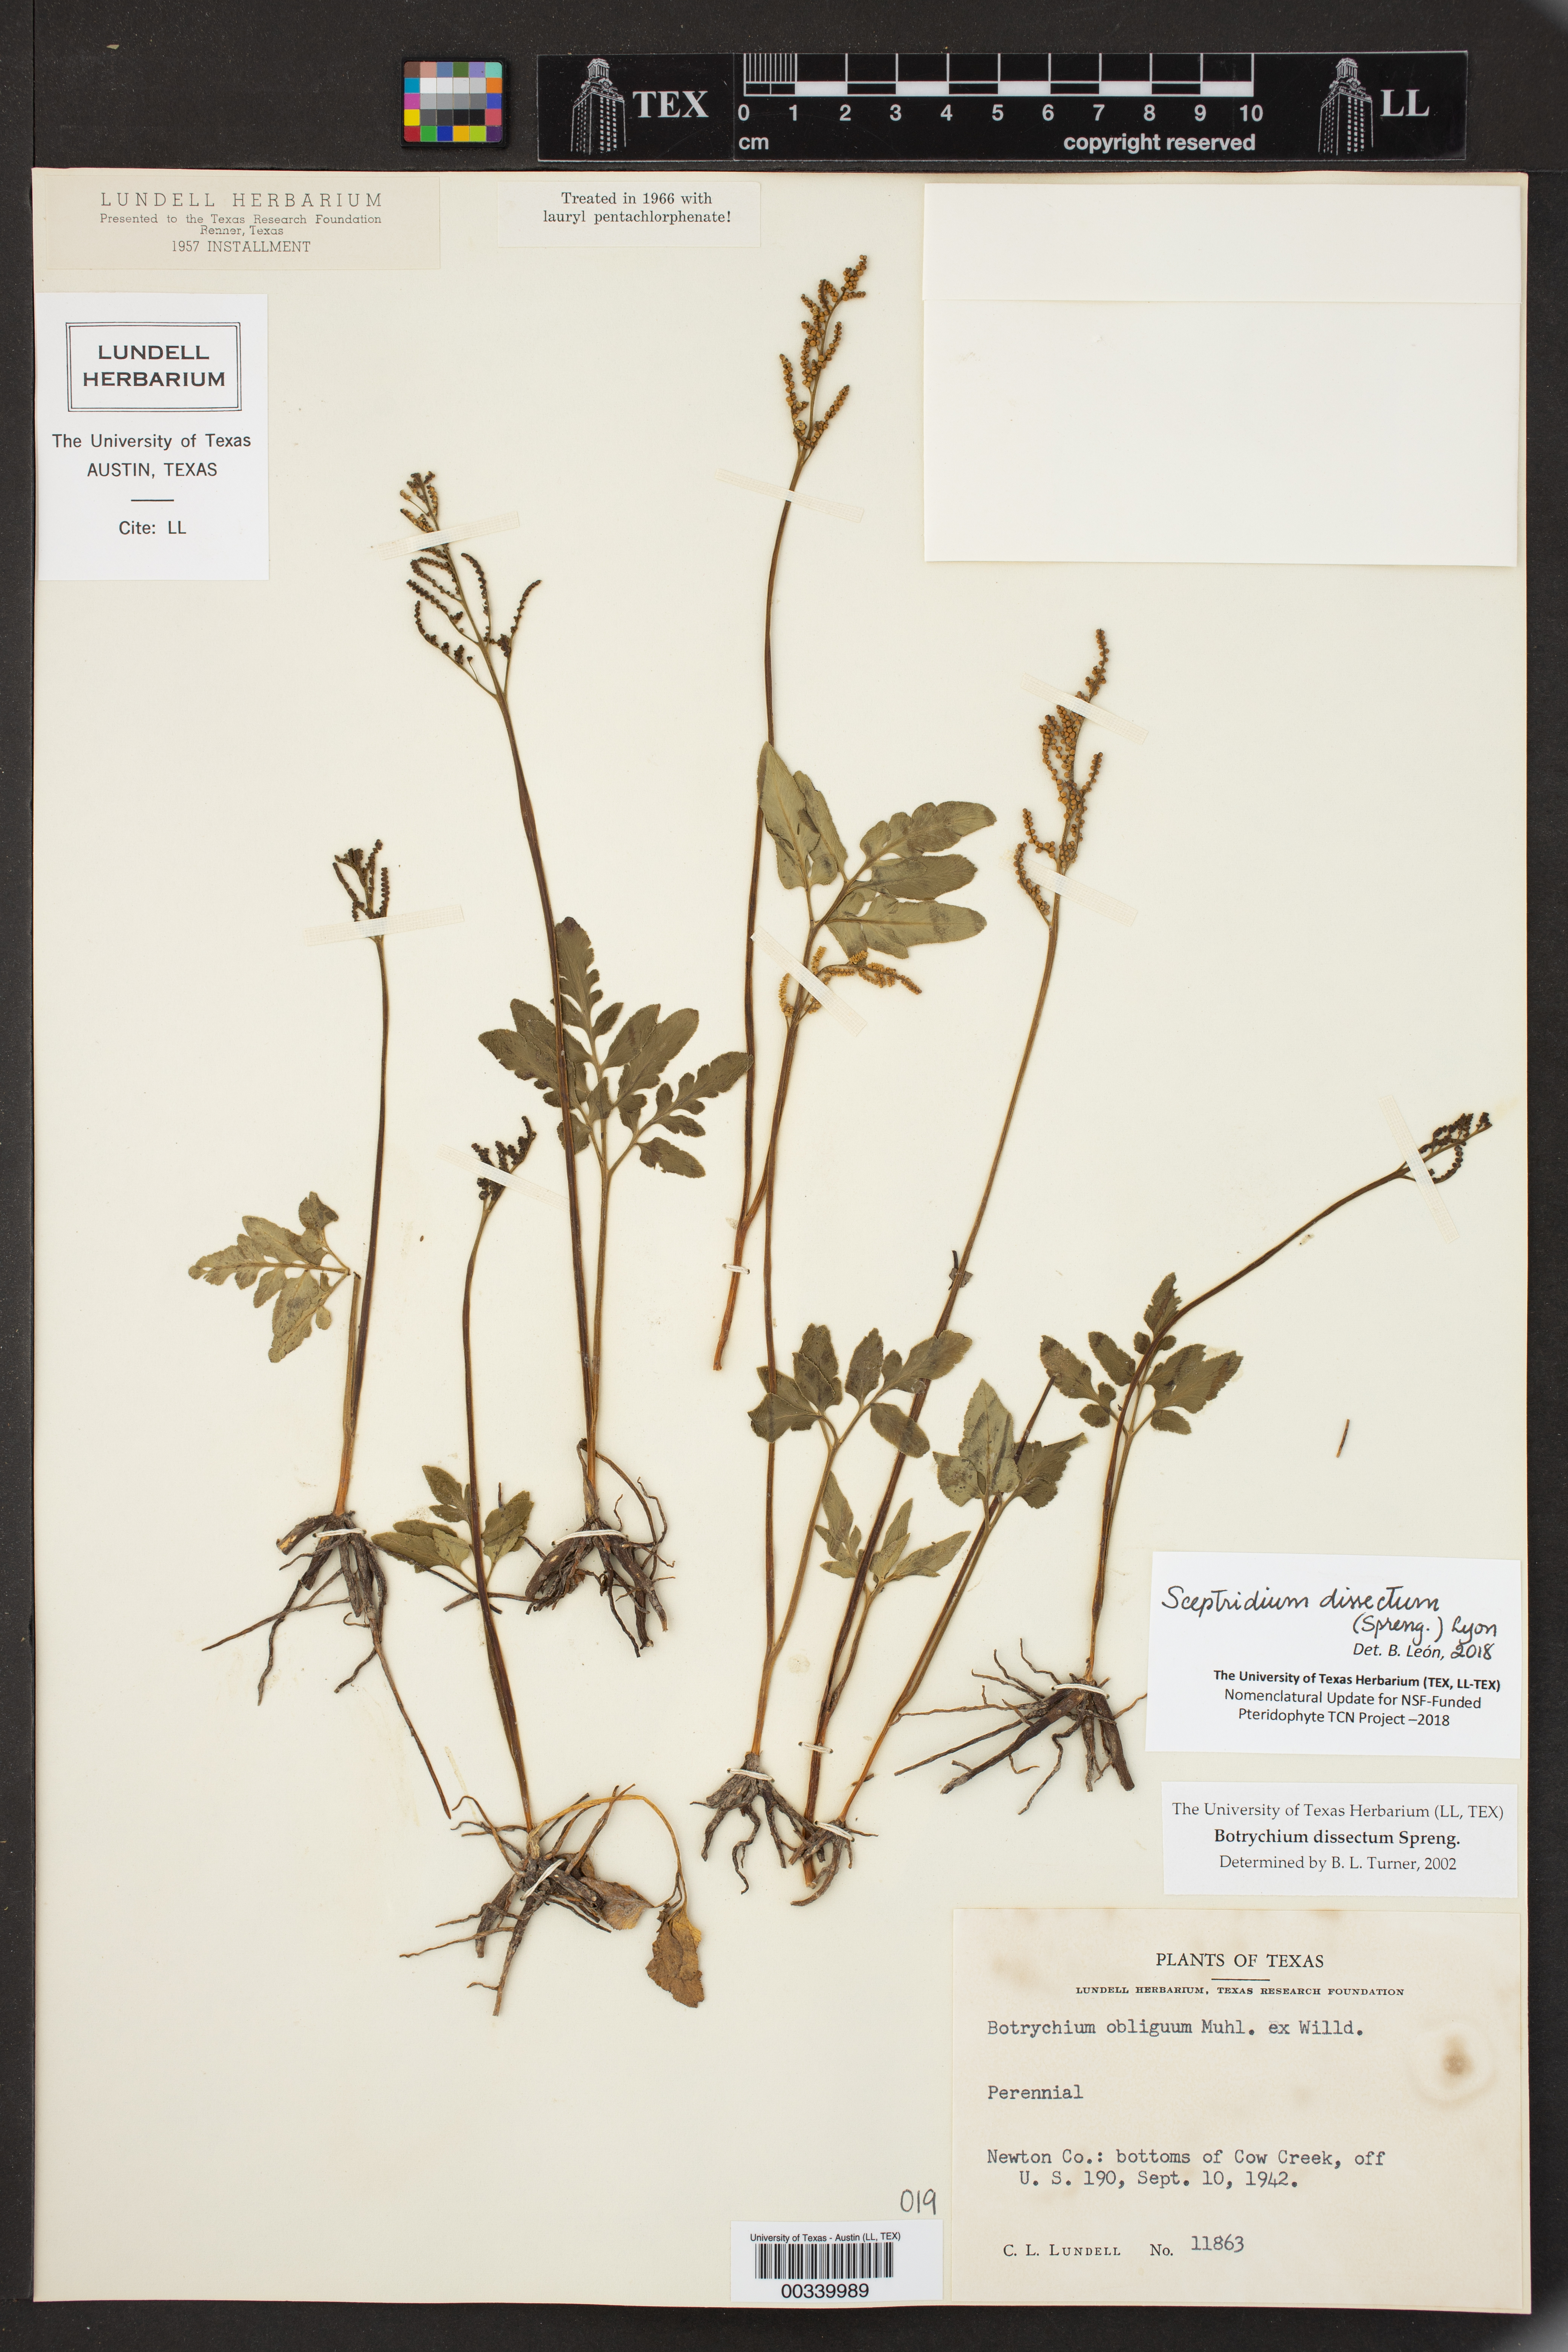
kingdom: Plantae
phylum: Tracheophyta
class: Polypodiopsida
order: Ophioglossales
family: Ophioglossaceae
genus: Sceptridium
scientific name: Sceptridium dissectum
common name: Cut-leaved grapefern
